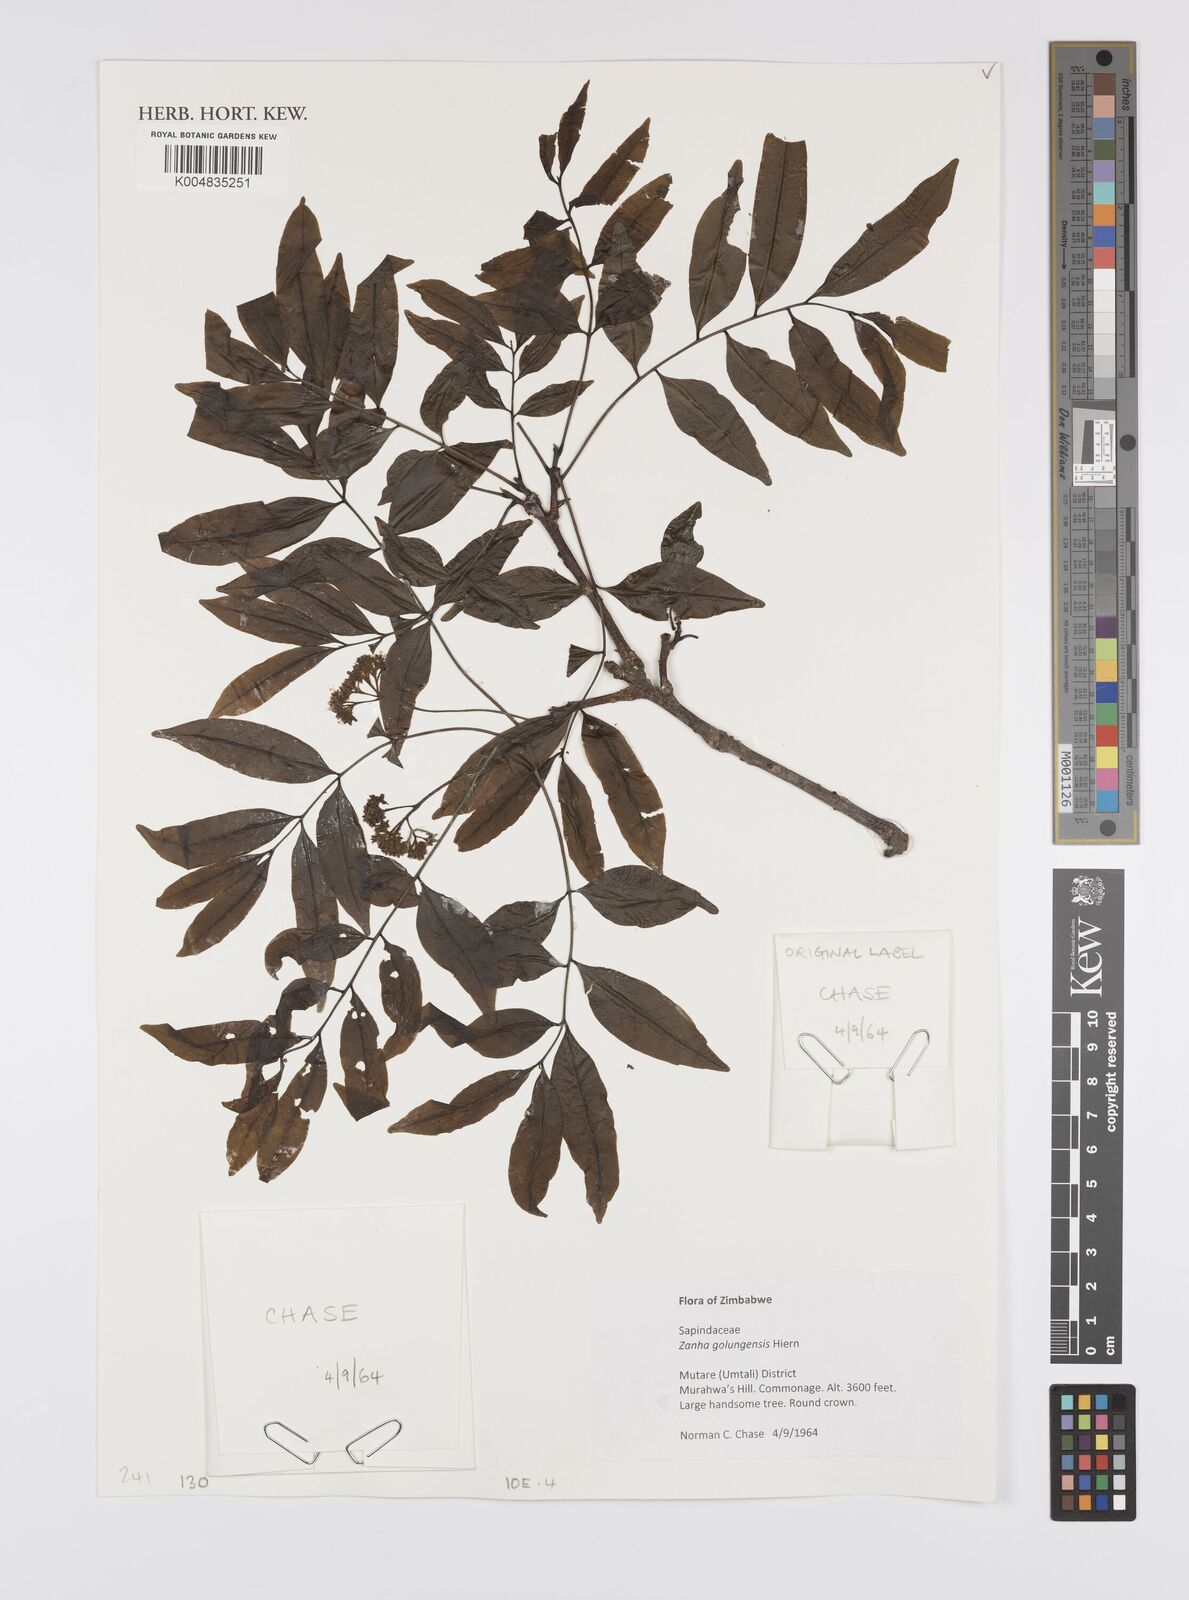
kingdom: Plantae
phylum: Tracheophyta
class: Magnoliopsida
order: Sapindales
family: Sapindaceae
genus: Zanha
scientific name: Zanha golungensis
